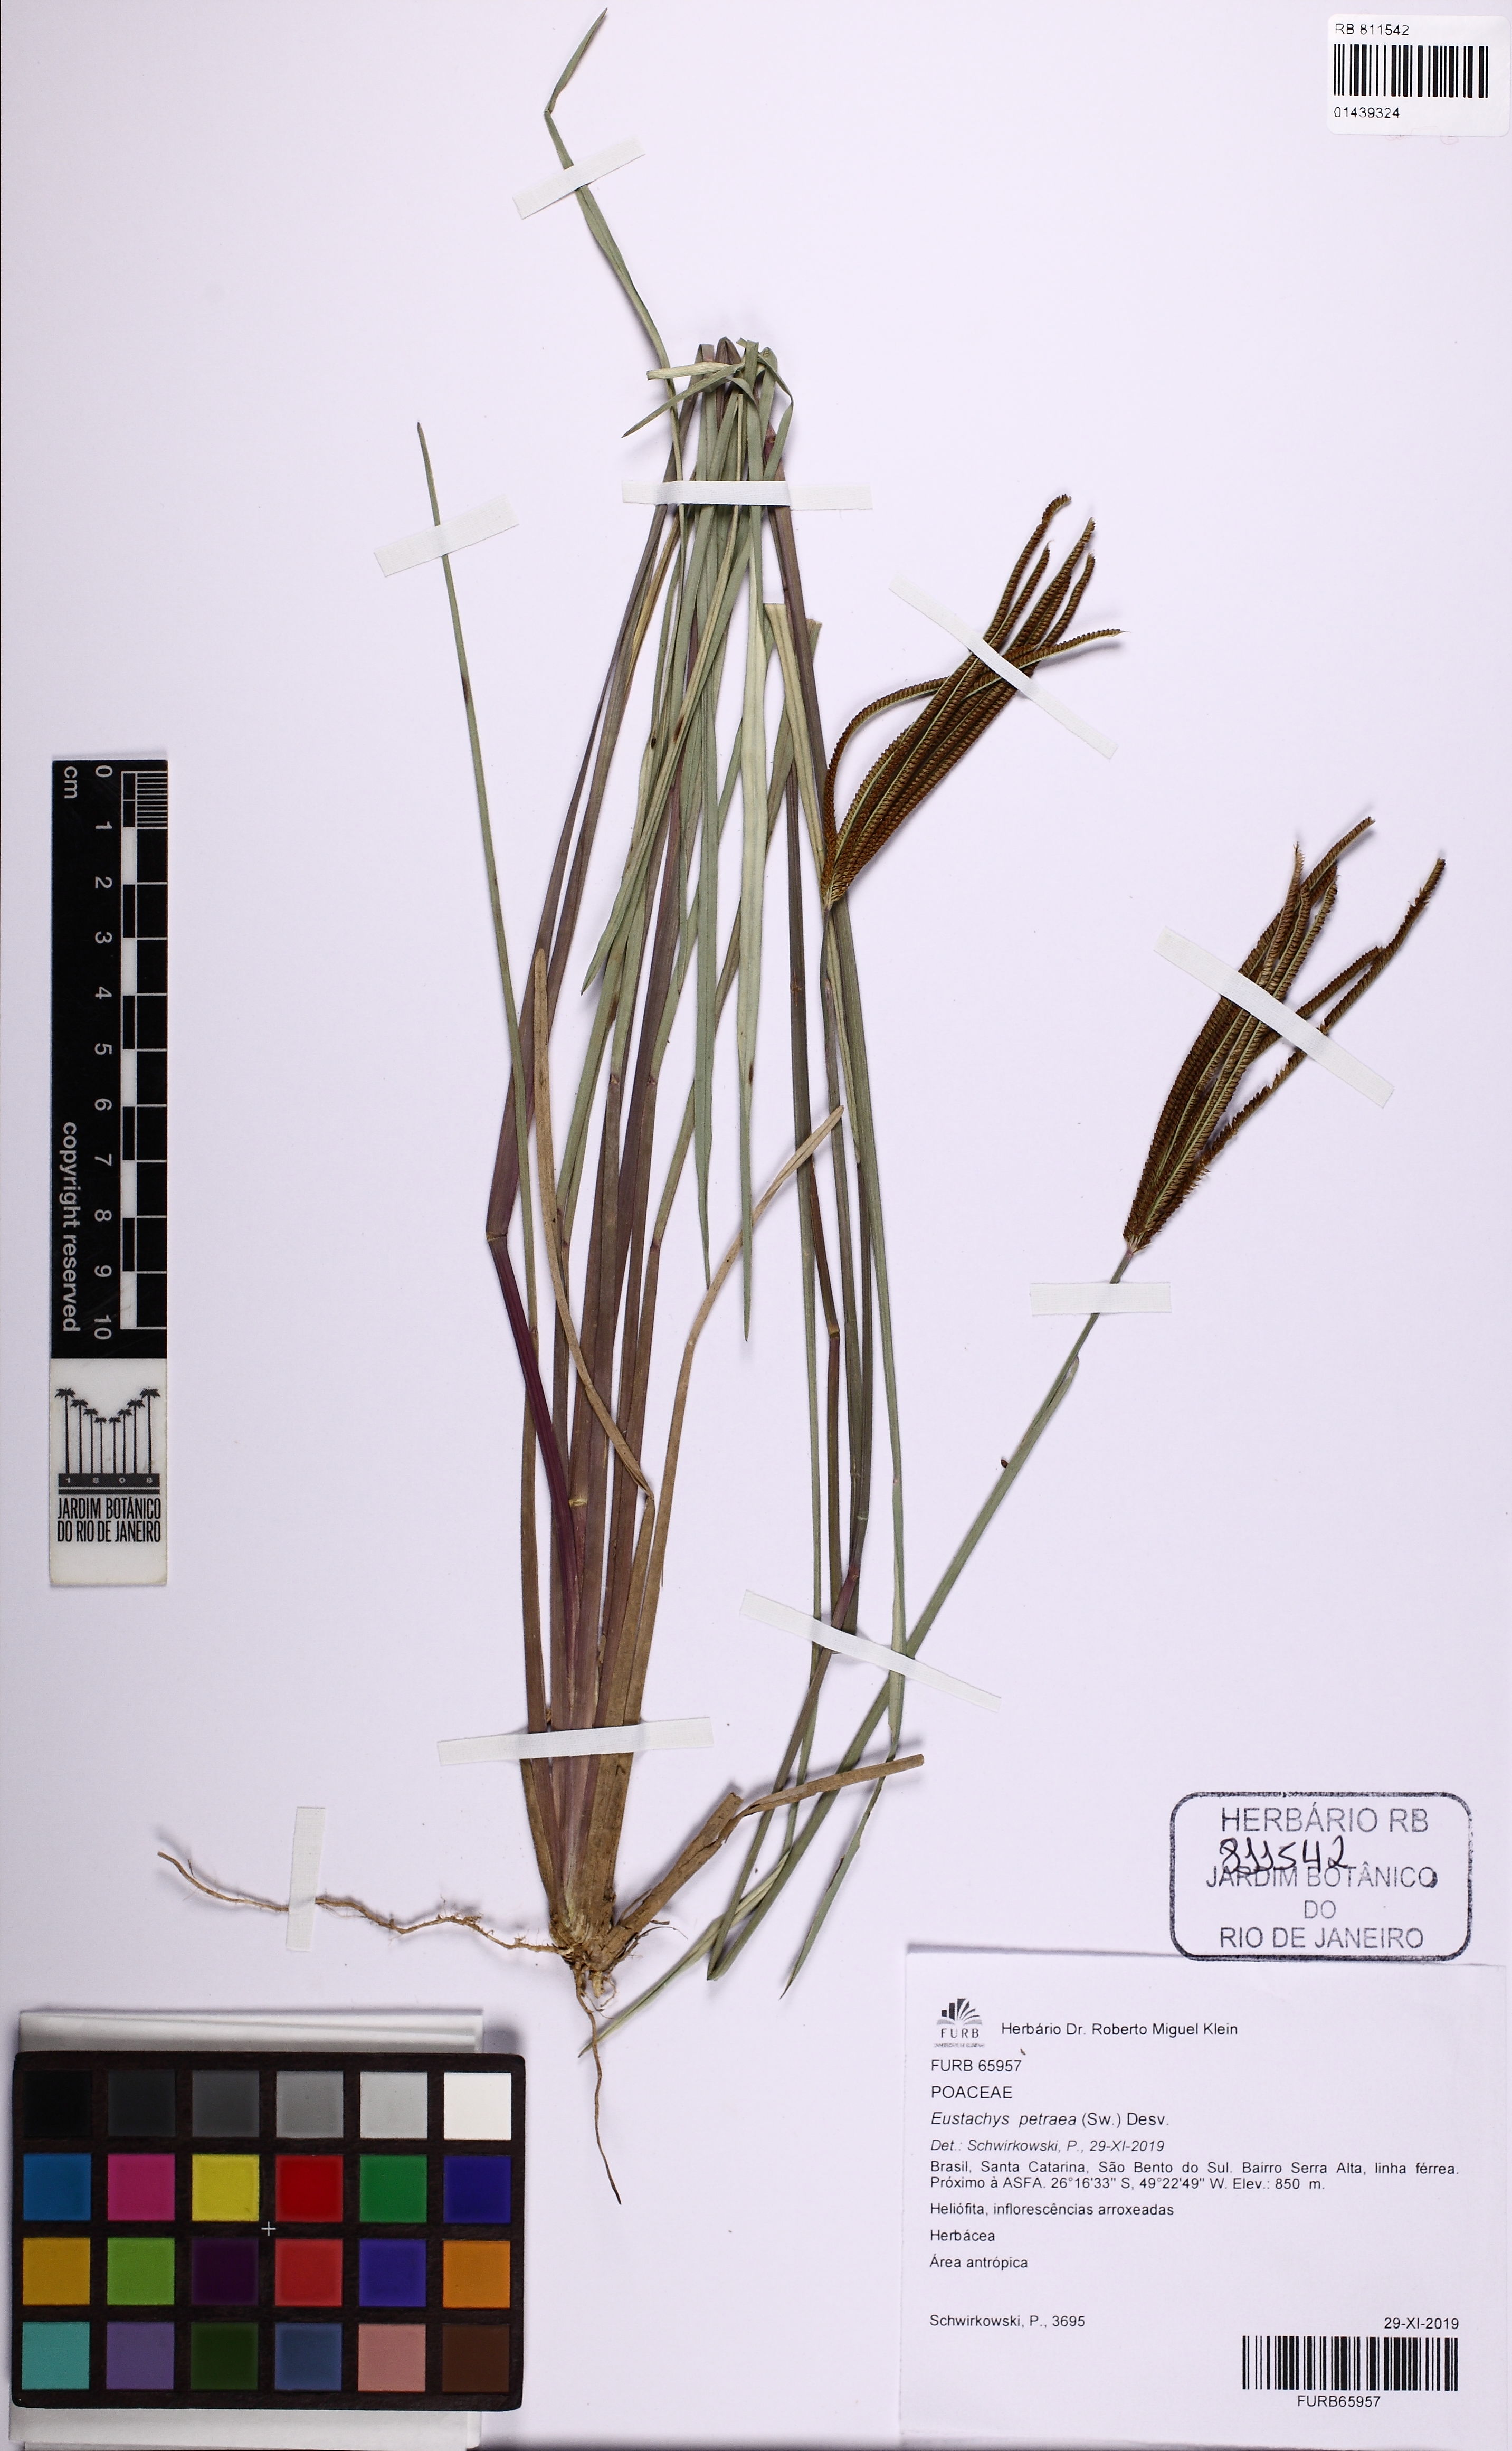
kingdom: Plantae
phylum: Tracheophyta
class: Liliopsida
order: Poales
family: Poaceae
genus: Eustachys
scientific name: Eustachys petraea
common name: Pinewoods fingergrass
